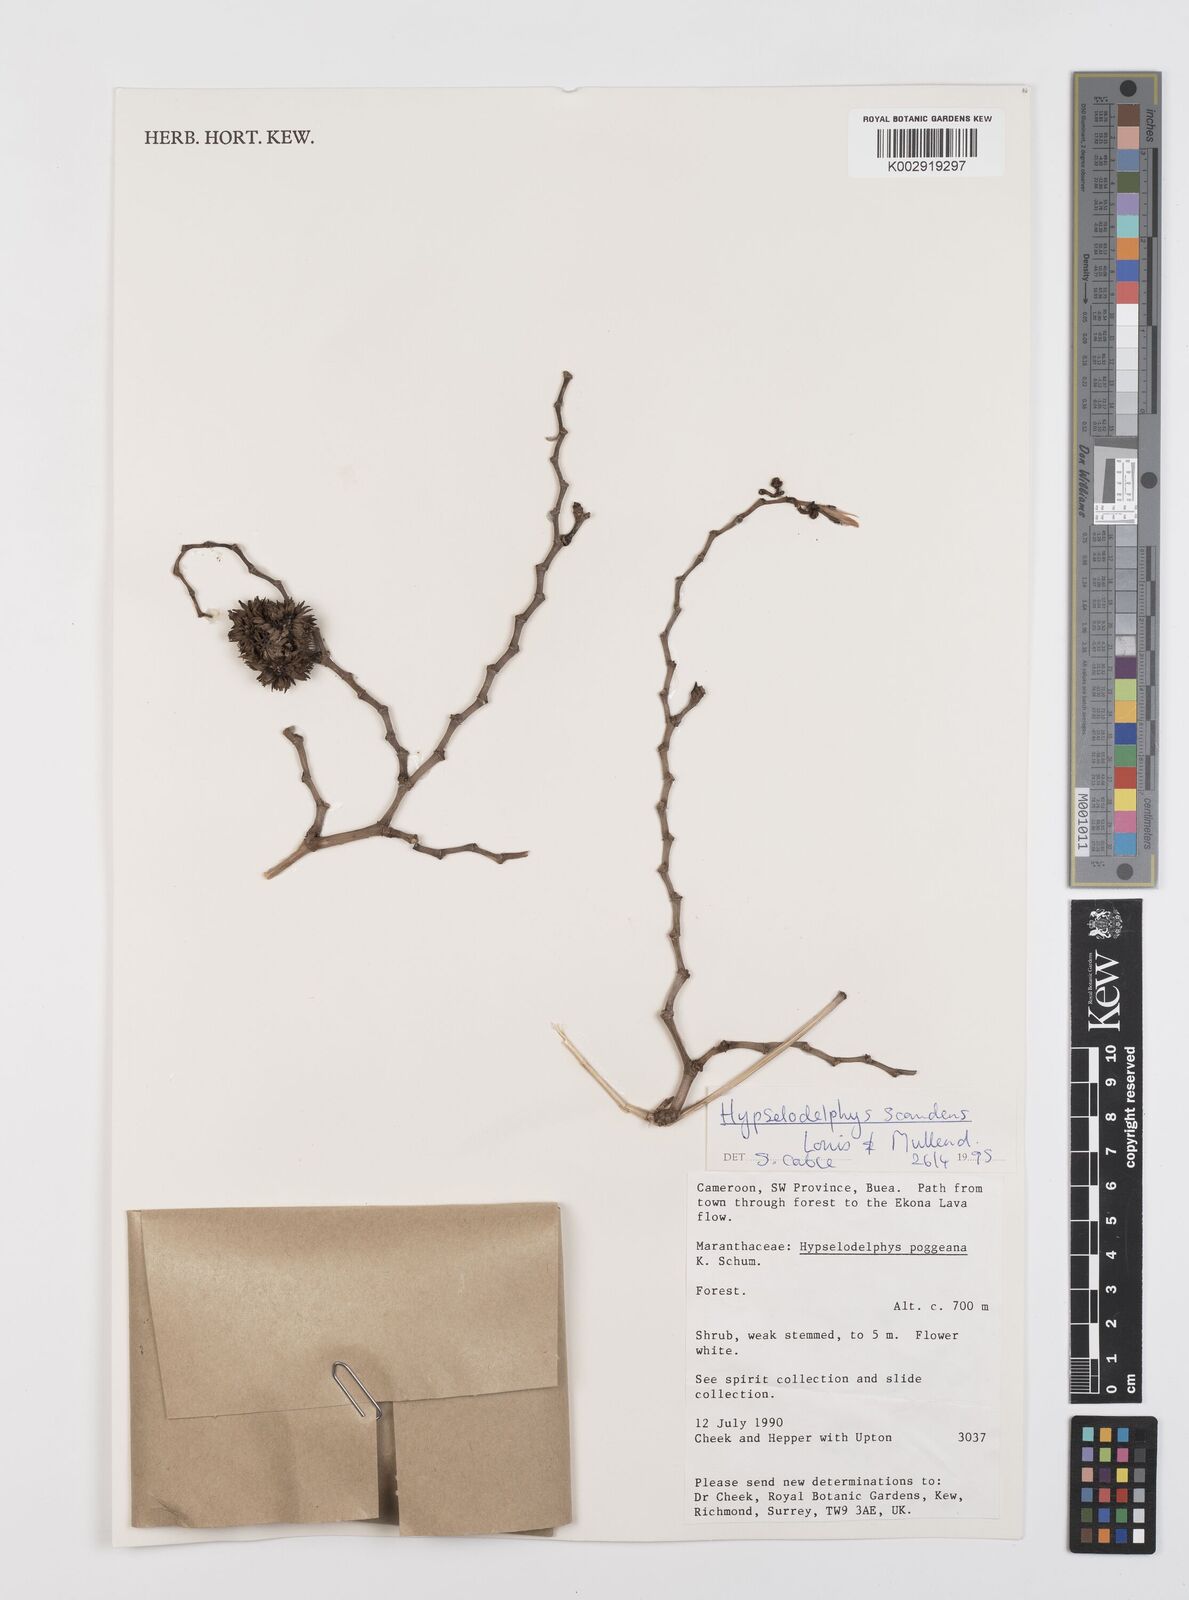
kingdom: Plantae
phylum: Tracheophyta
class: Liliopsida
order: Zingiberales
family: Marantaceae
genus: Hypselodelphys
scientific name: Hypselodelphys scandens
